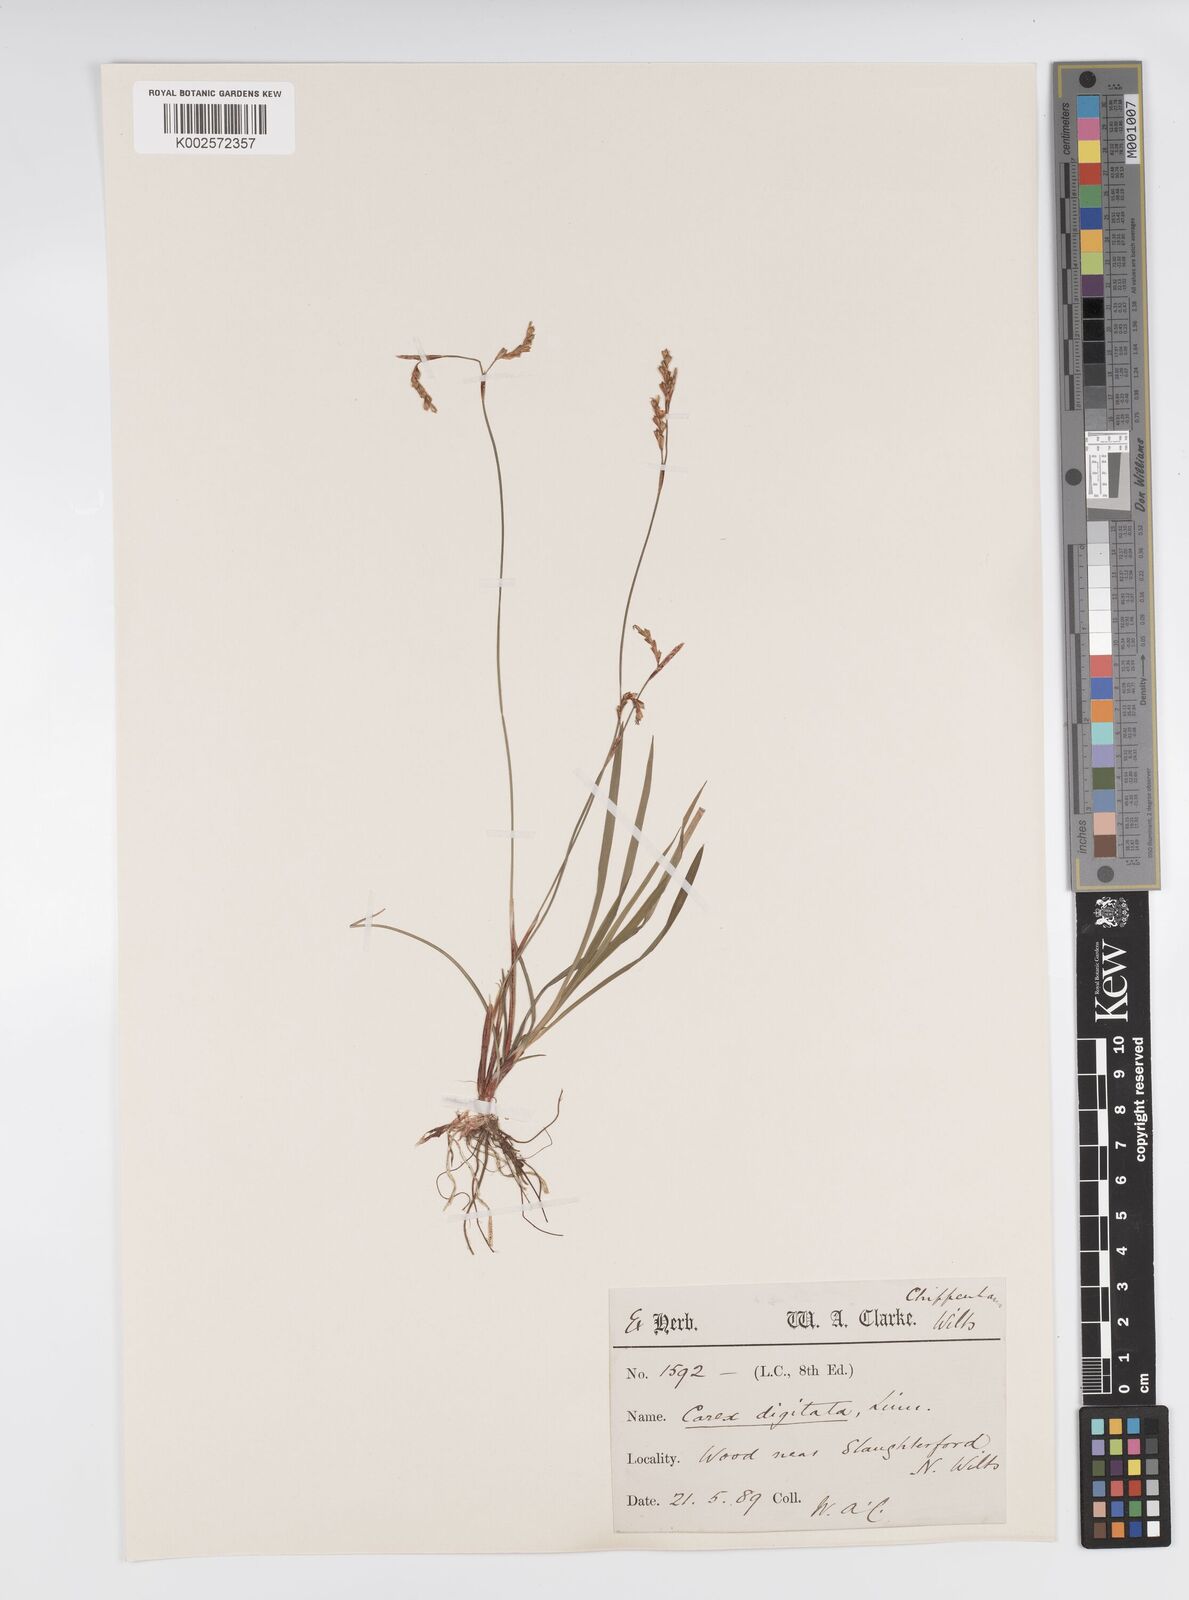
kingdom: Plantae
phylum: Tracheophyta
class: Liliopsida
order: Poales
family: Cyperaceae
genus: Carex
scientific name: Carex digitata
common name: Fingered sedge
